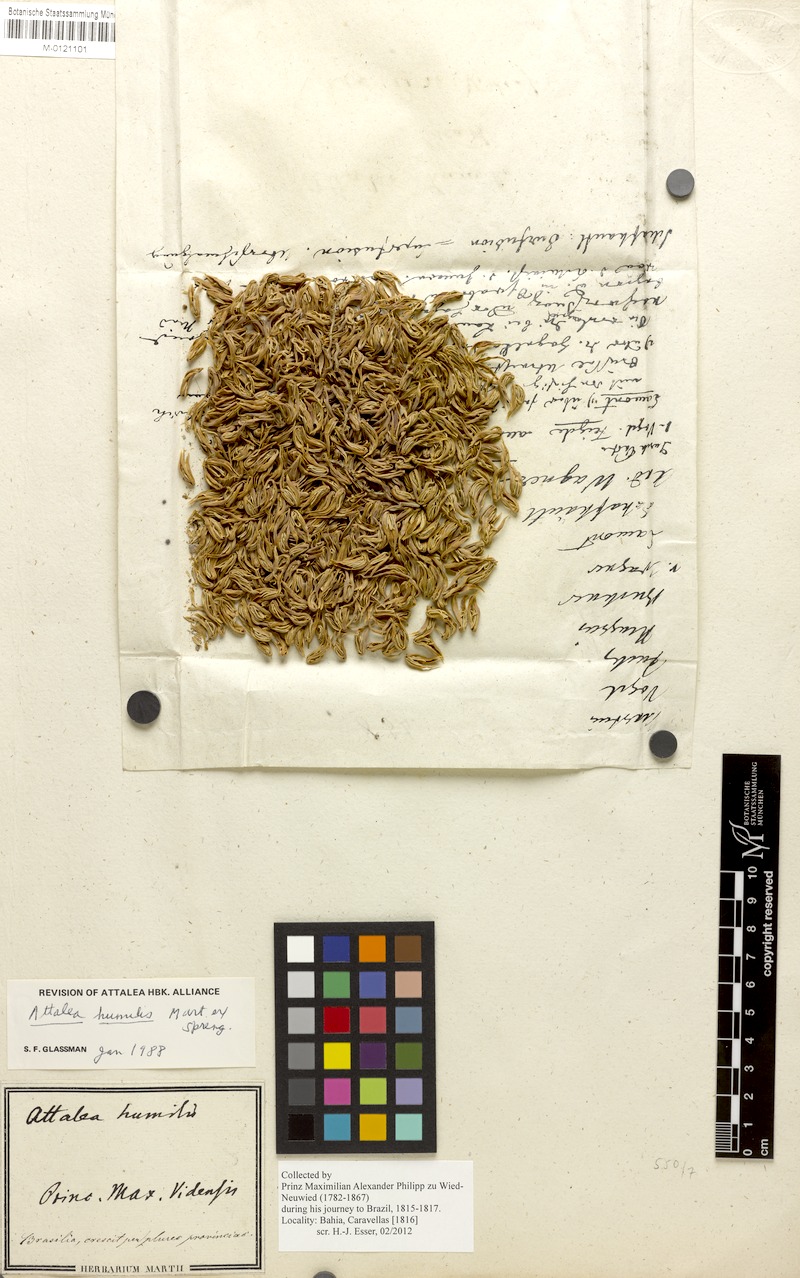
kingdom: Plantae
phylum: Tracheophyta
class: Liliopsida
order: Arecales
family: Arecaceae
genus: Attalea
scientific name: Attalea humilis
